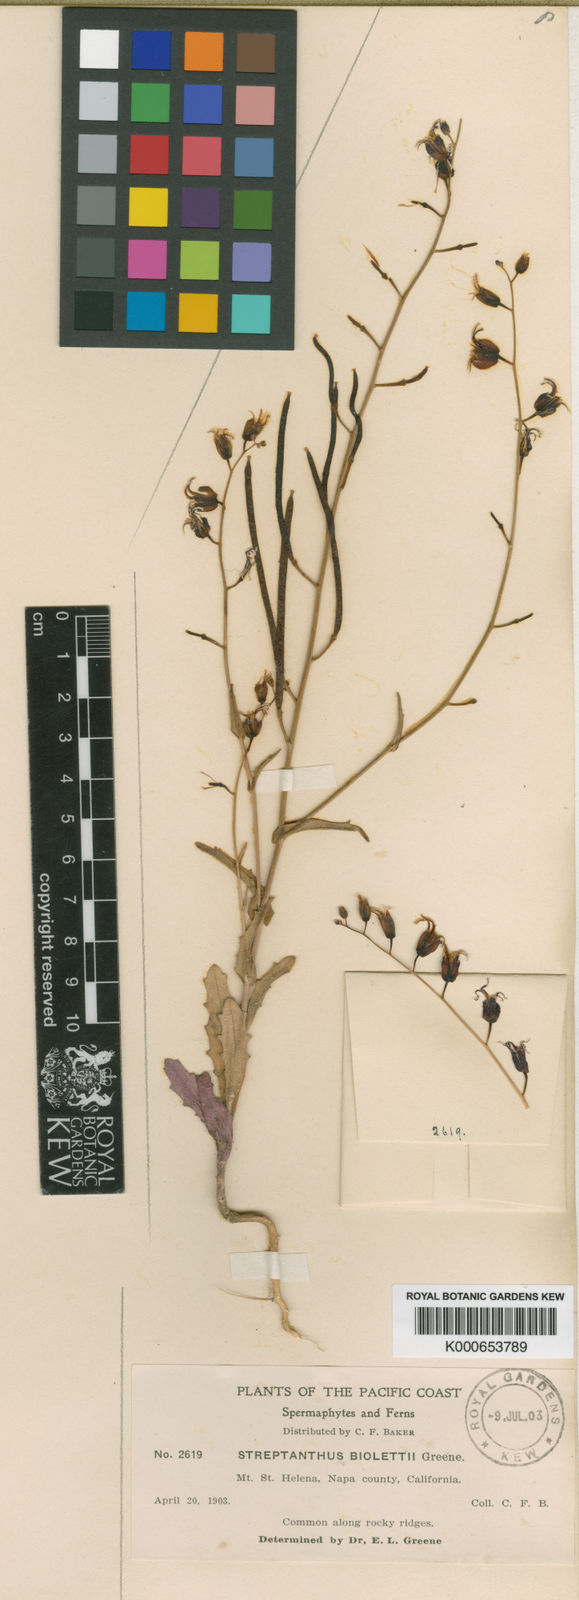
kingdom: Plantae
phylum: Tracheophyta
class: Magnoliopsida
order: Brassicales
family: Brassicaceae
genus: Streptanthus
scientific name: Streptanthus glandulosus
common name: Jewel-flower
